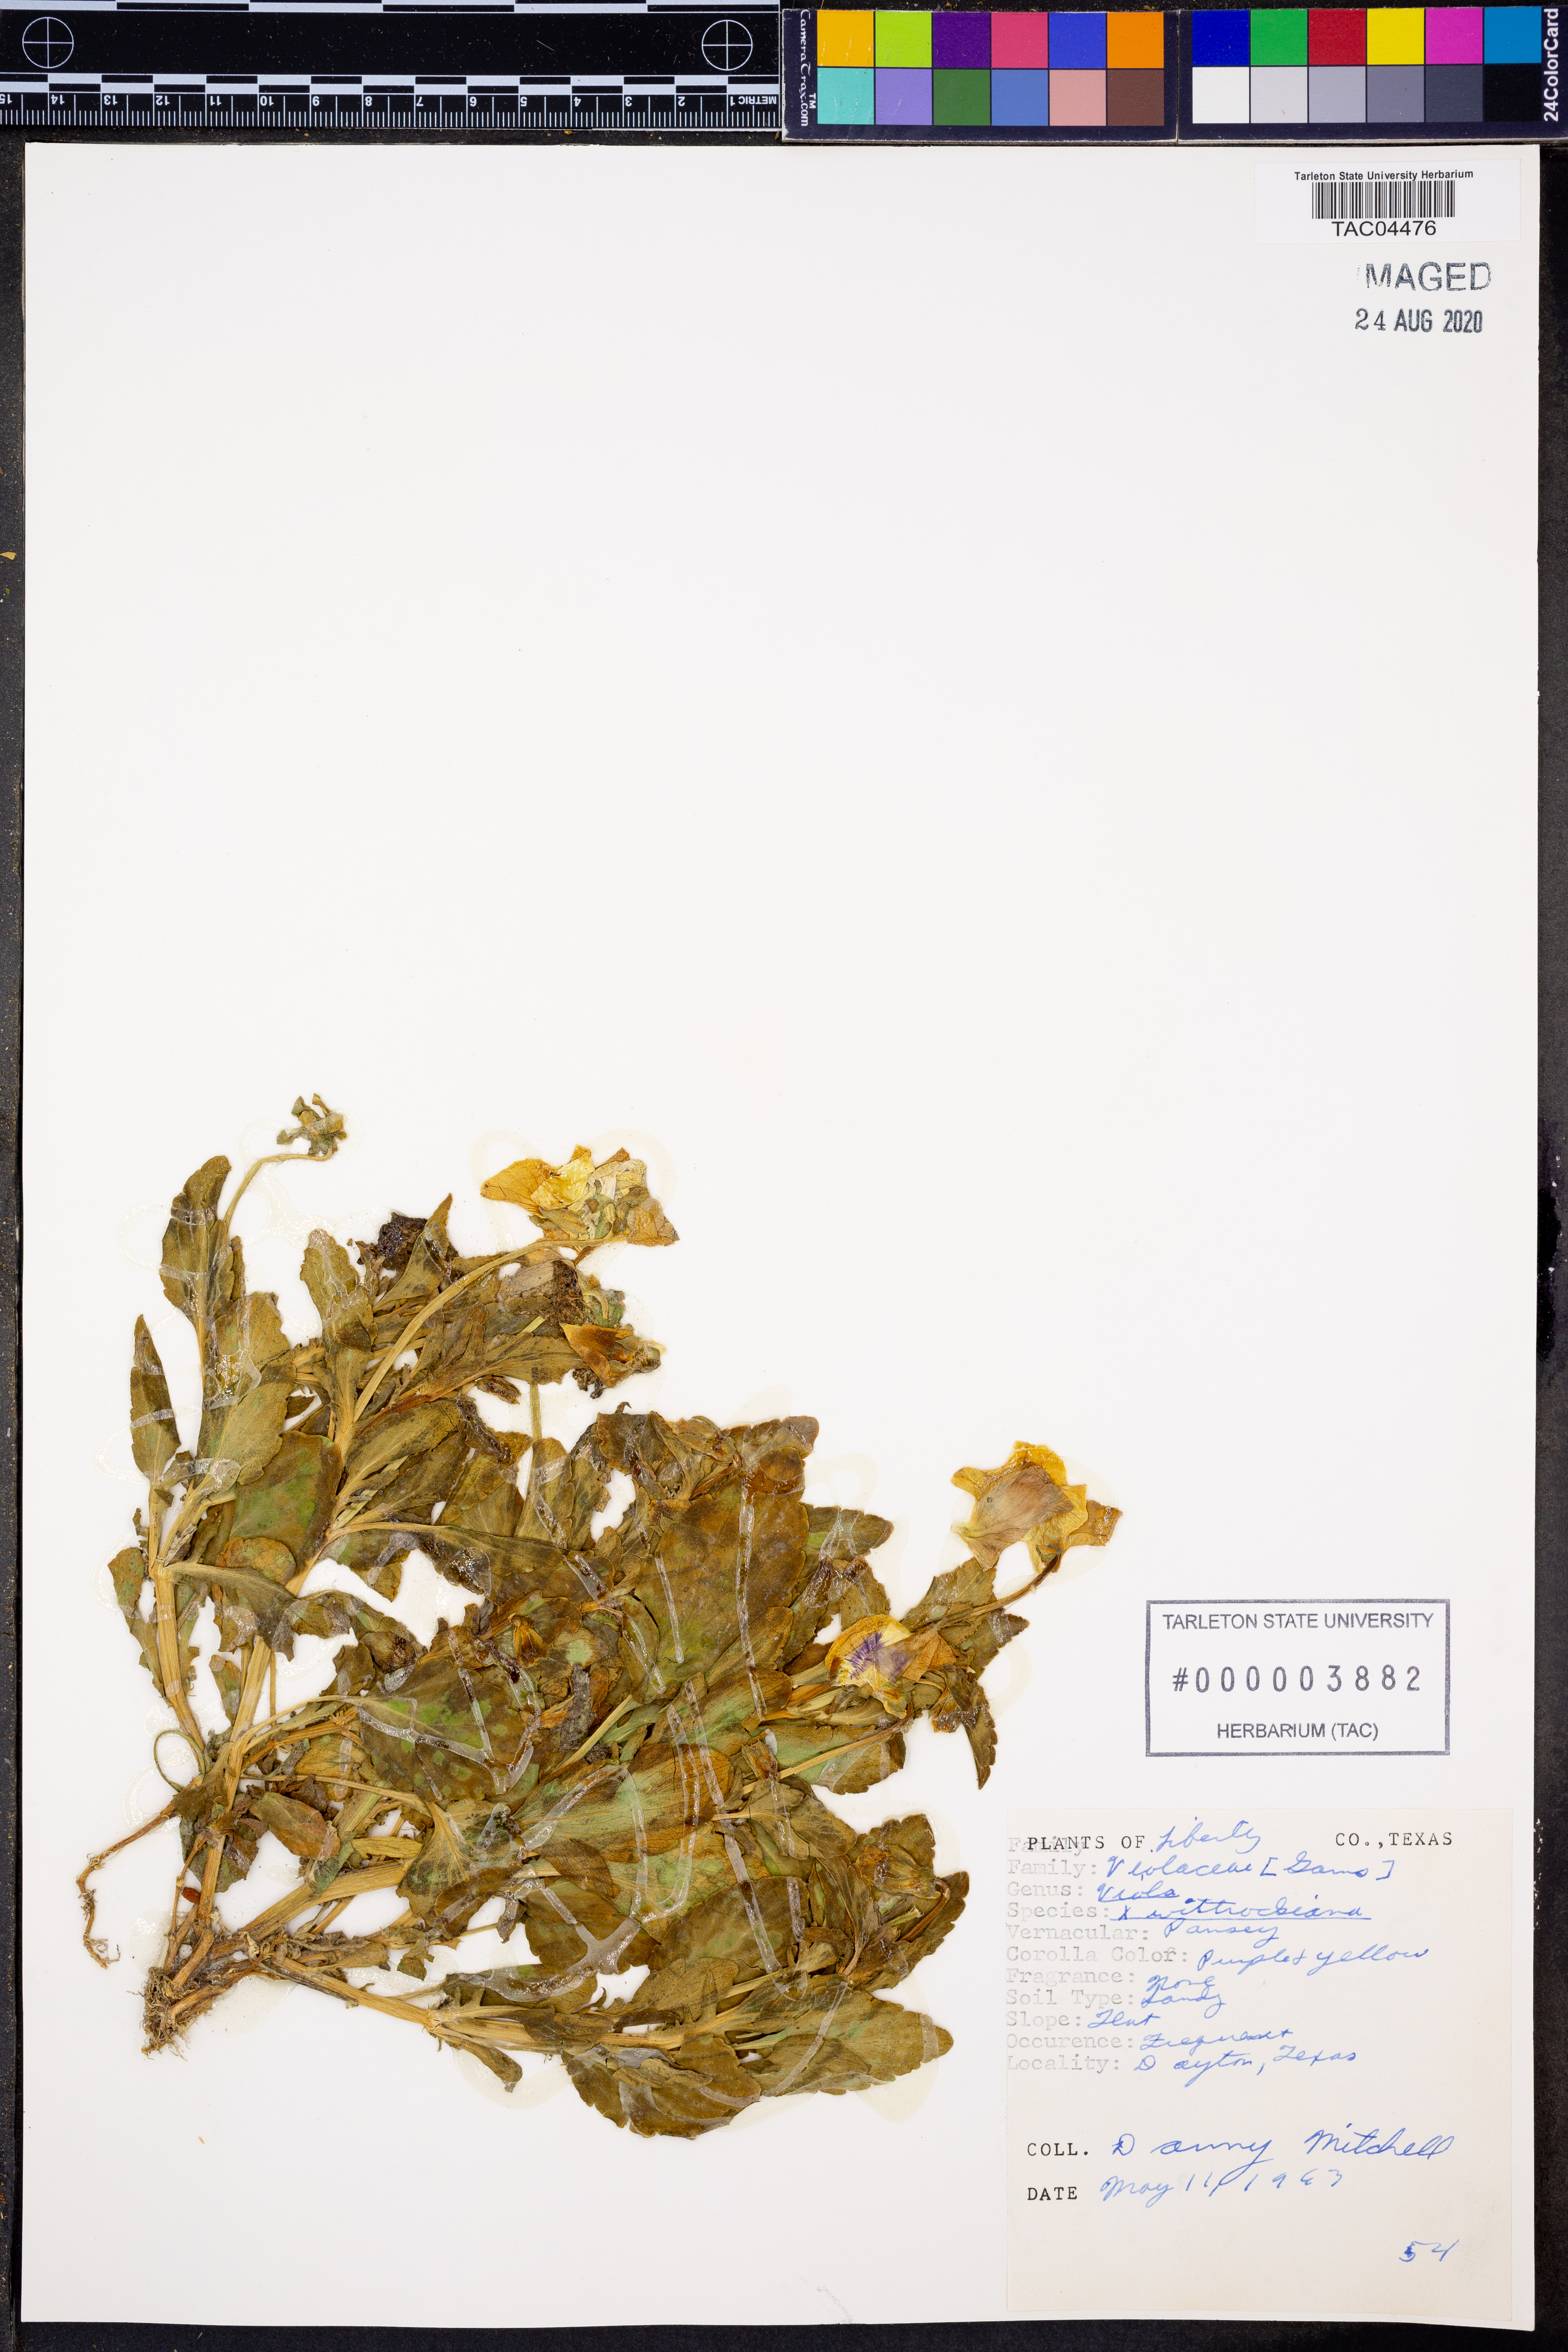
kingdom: Plantae
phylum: Tracheophyta
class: Magnoliopsida
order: Malpighiales
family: Violaceae
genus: Viola
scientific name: Viola wittrockiana
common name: Garden pansy
